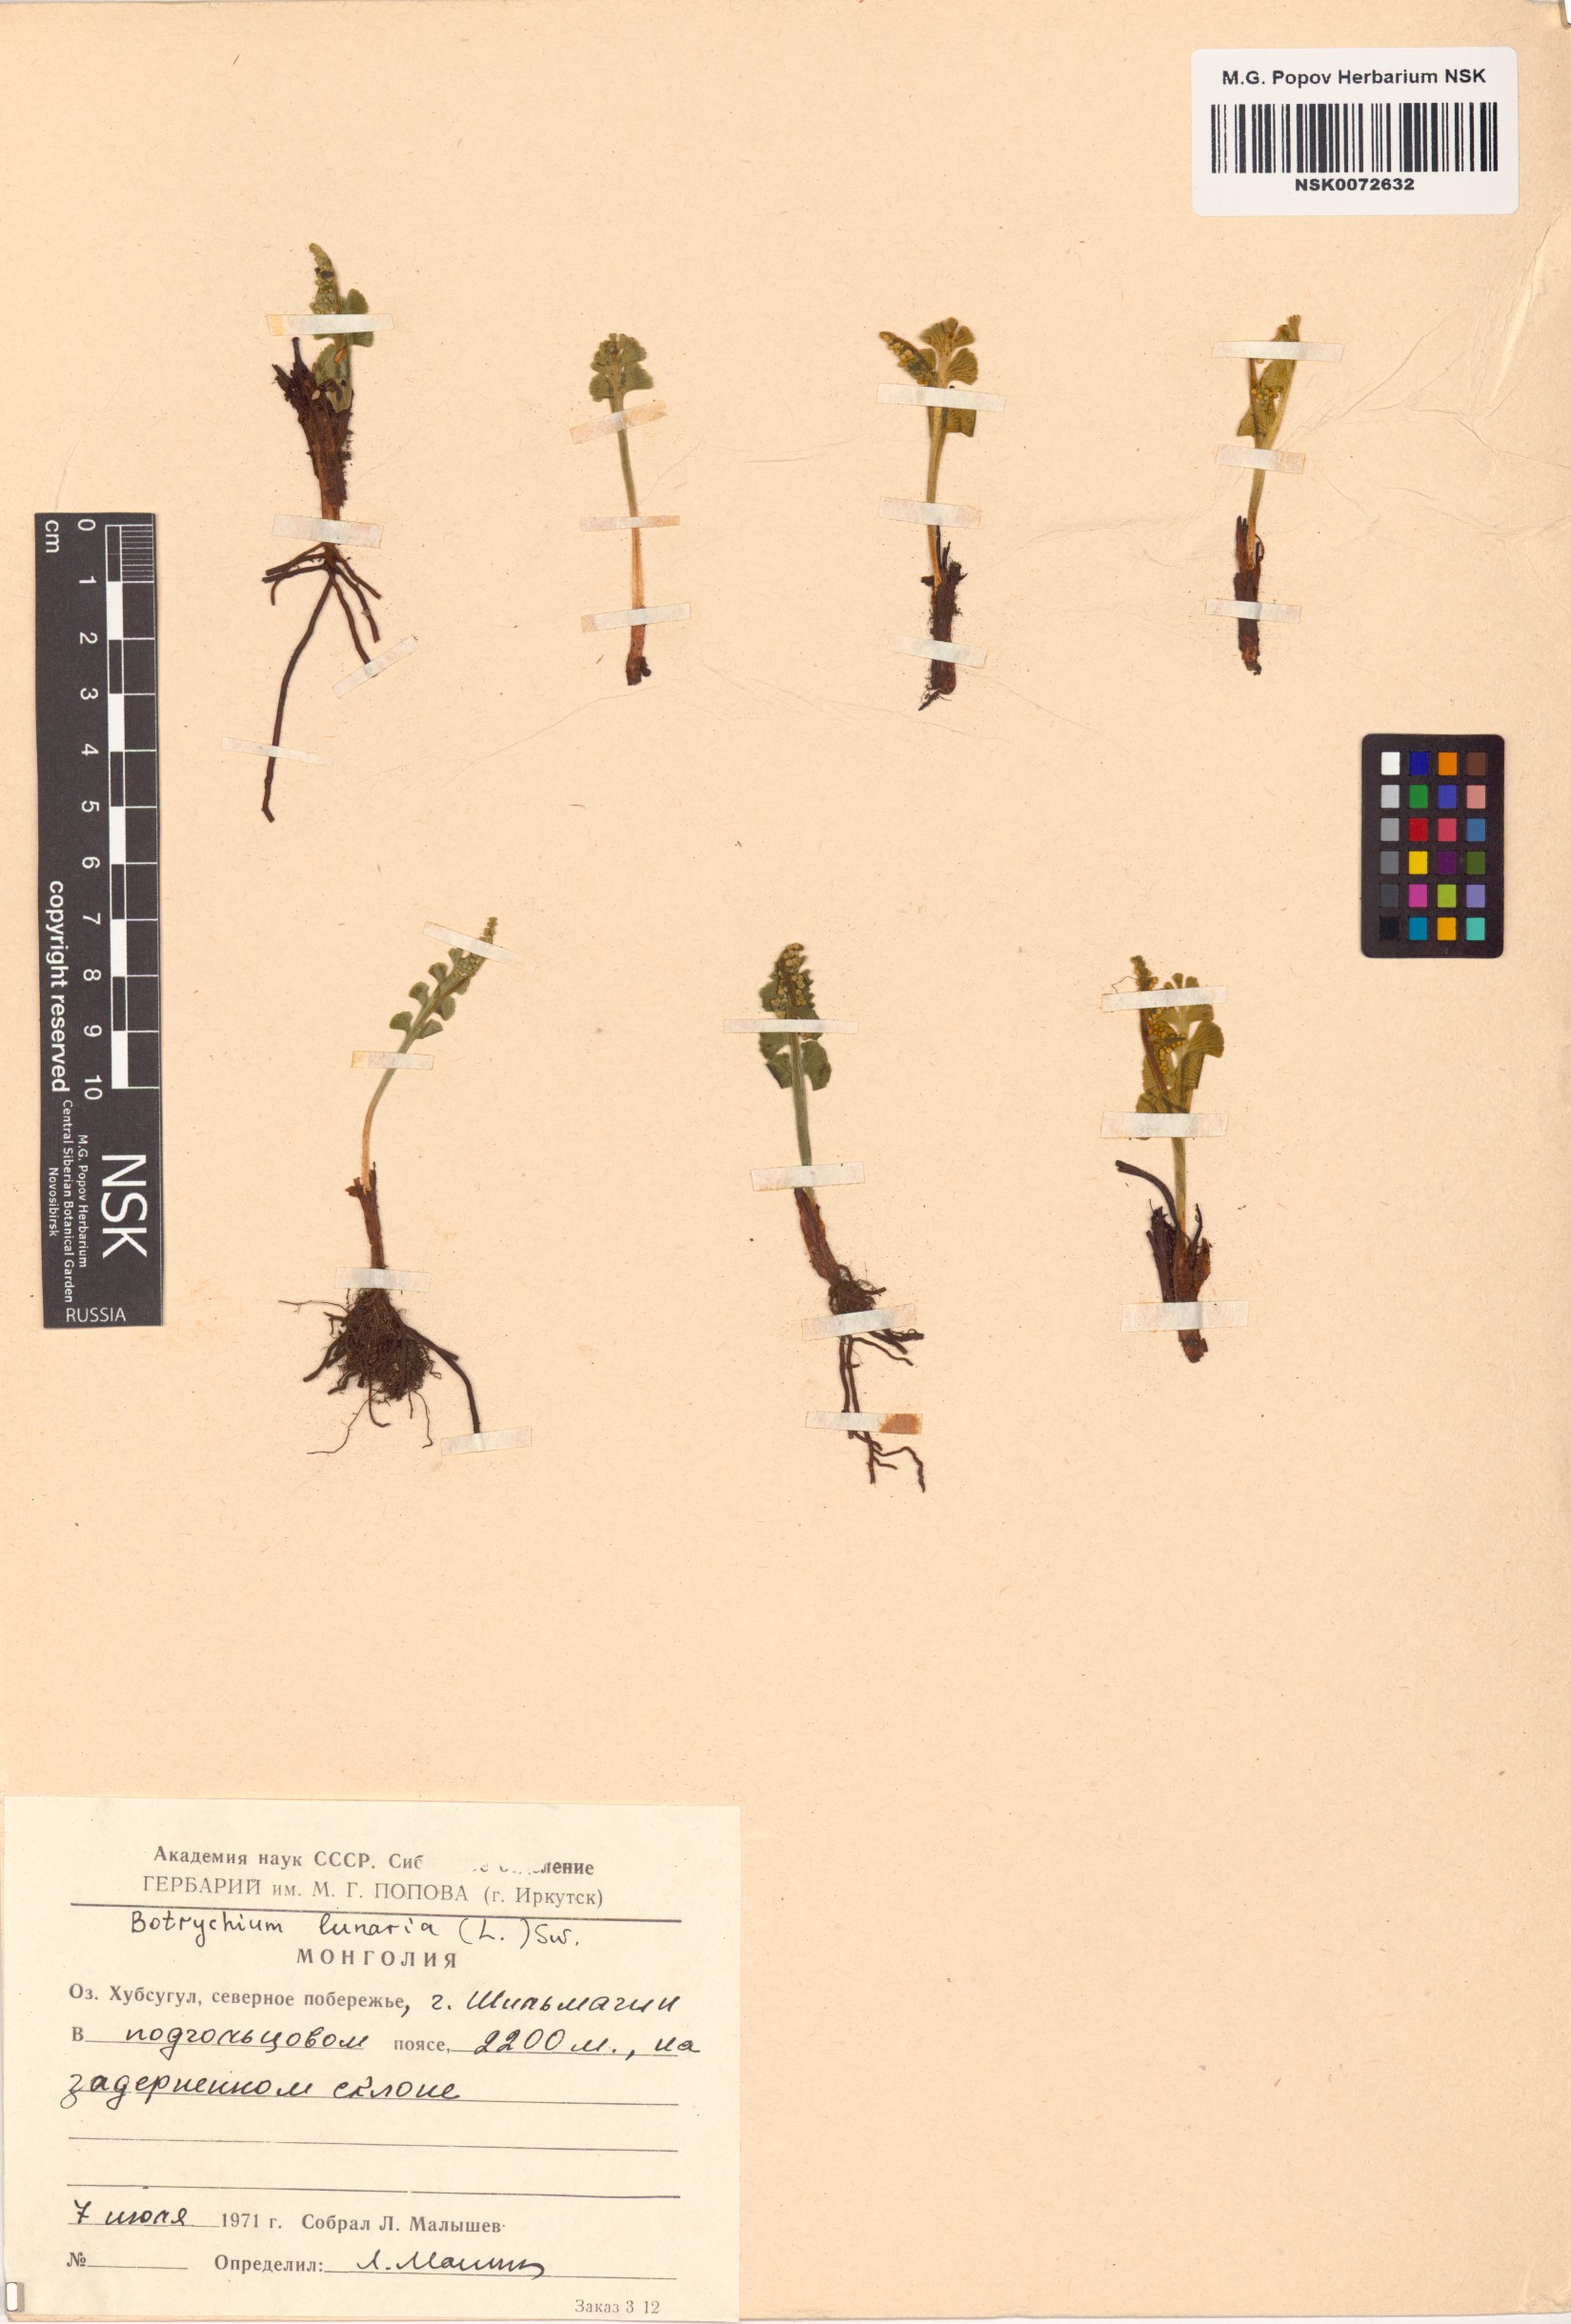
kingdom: Plantae
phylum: Tracheophyta
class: Polypodiopsida
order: Ophioglossales
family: Ophioglossaceae
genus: Botrychium
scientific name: Botrychium lunaria
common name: Moonwort
